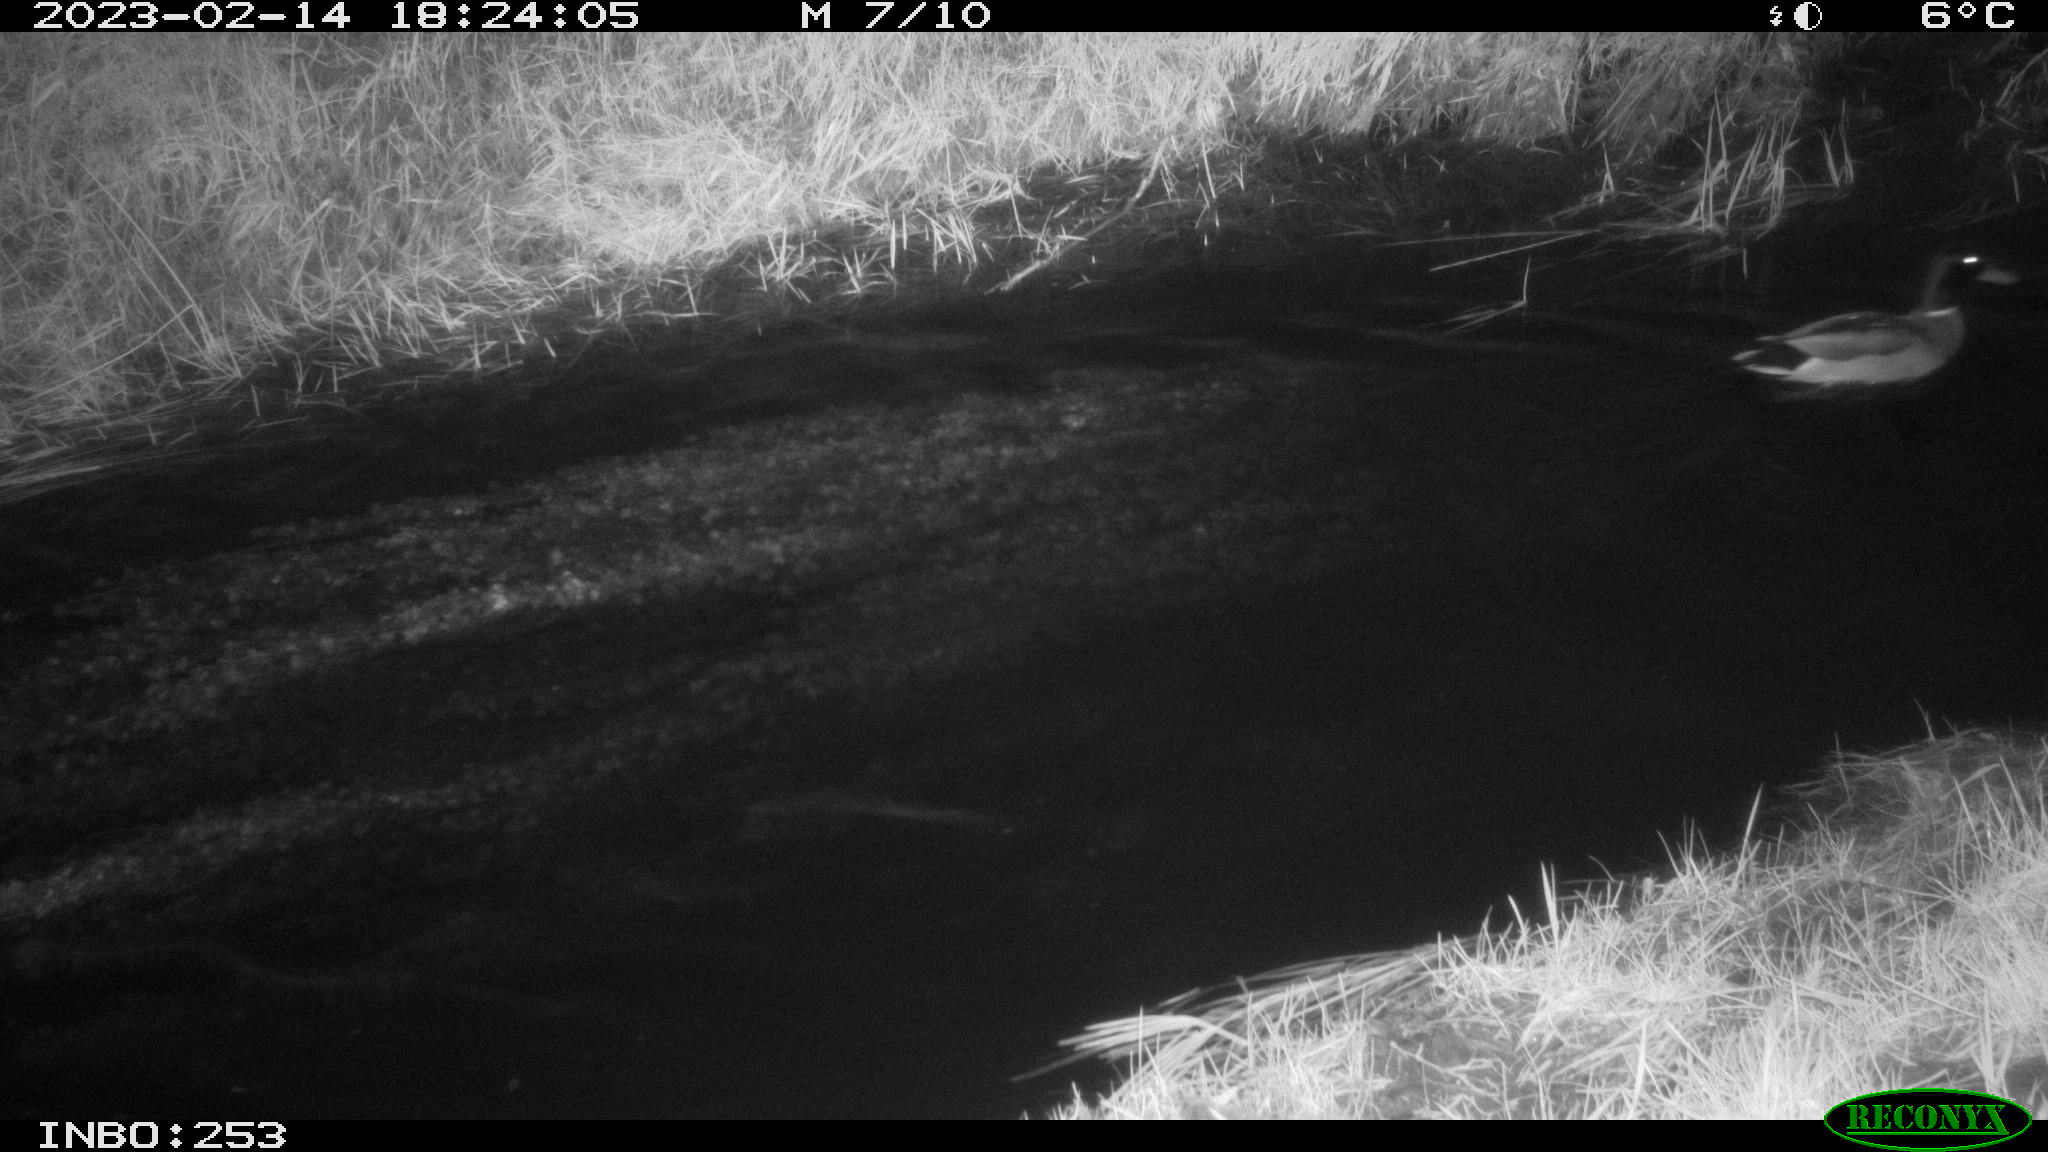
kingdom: Animalia
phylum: Chordata
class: Aves
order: Anseriformes
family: Anatidae
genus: Anas
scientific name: Anas
